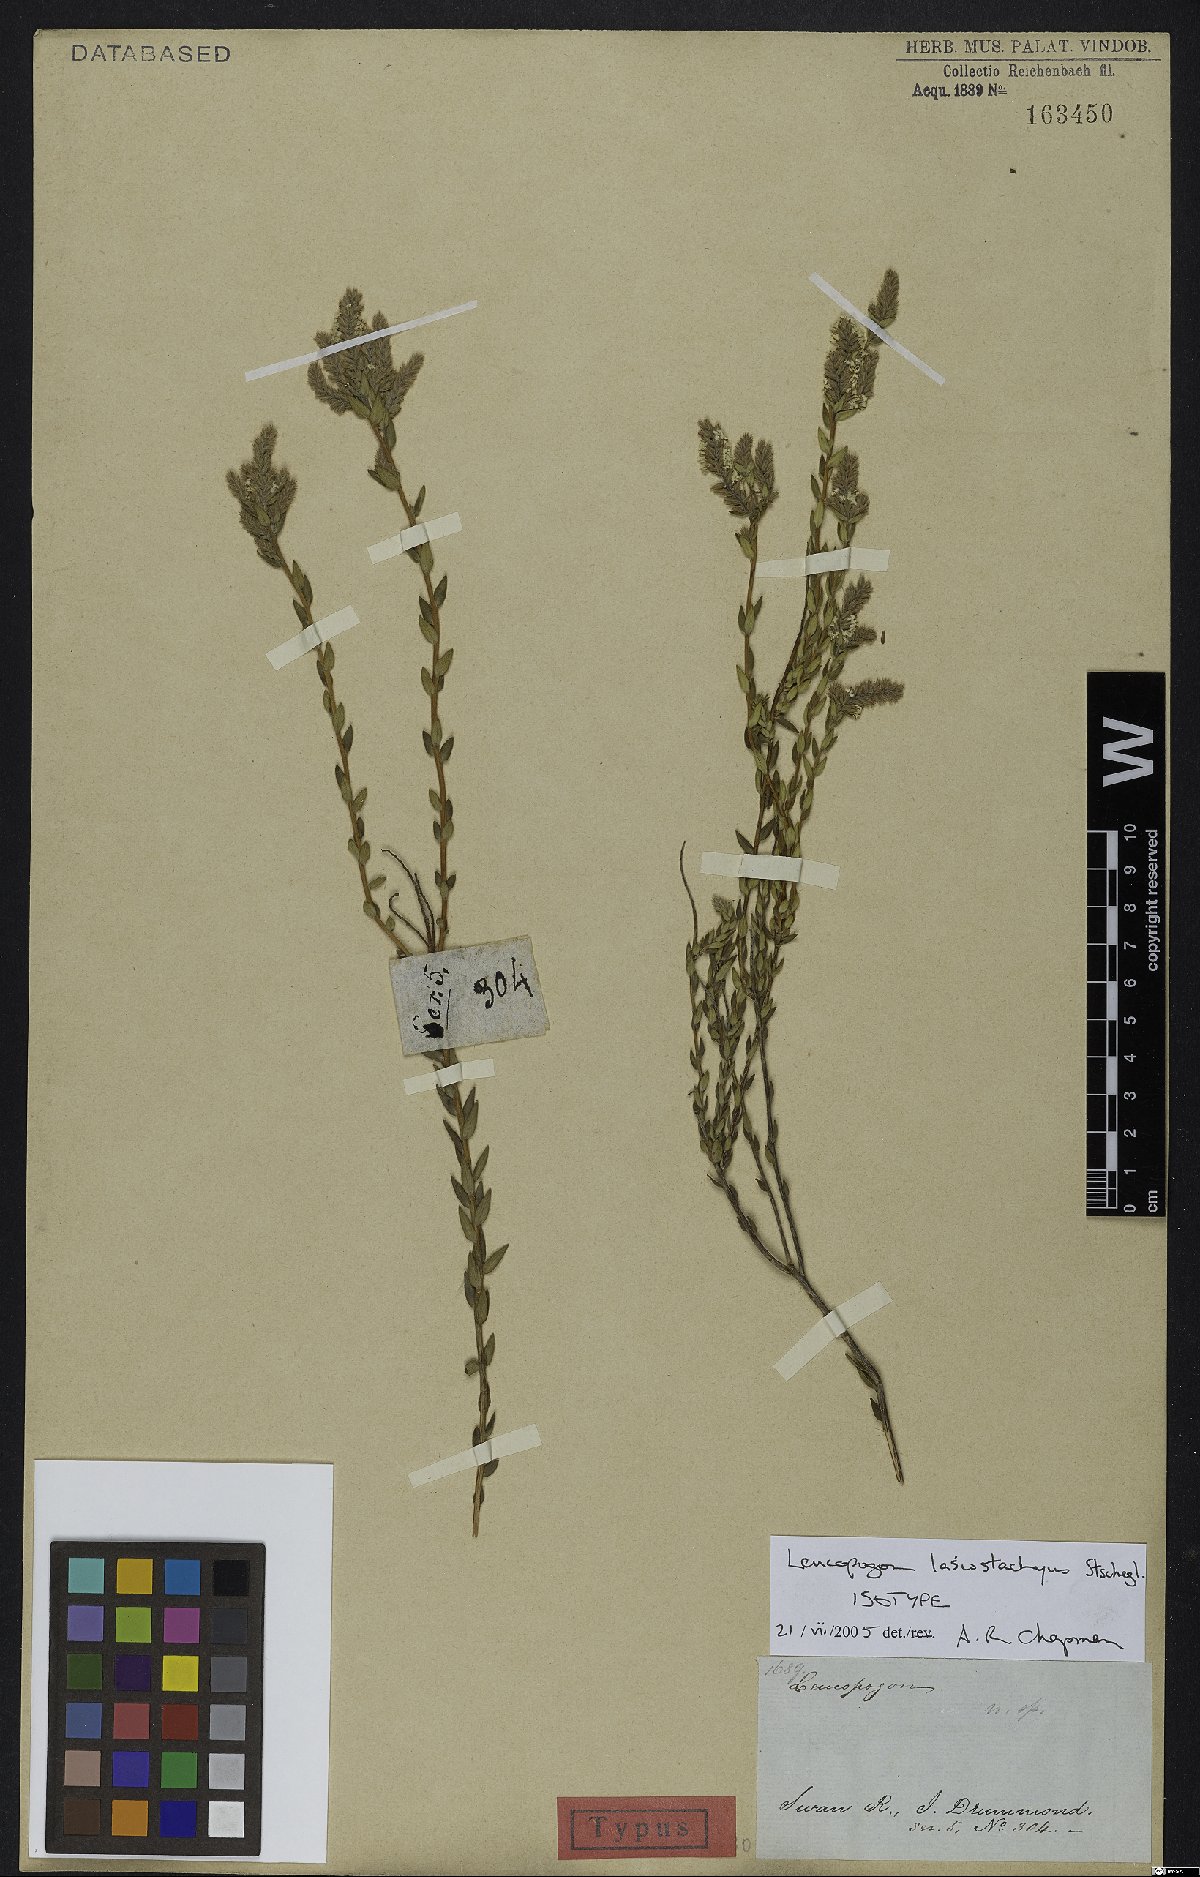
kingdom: Plantae
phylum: Tracheophyta
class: Magnoliopsida
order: Ericales
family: Ericaceae
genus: Leucopogon
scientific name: Leucopogon lasiostachys
